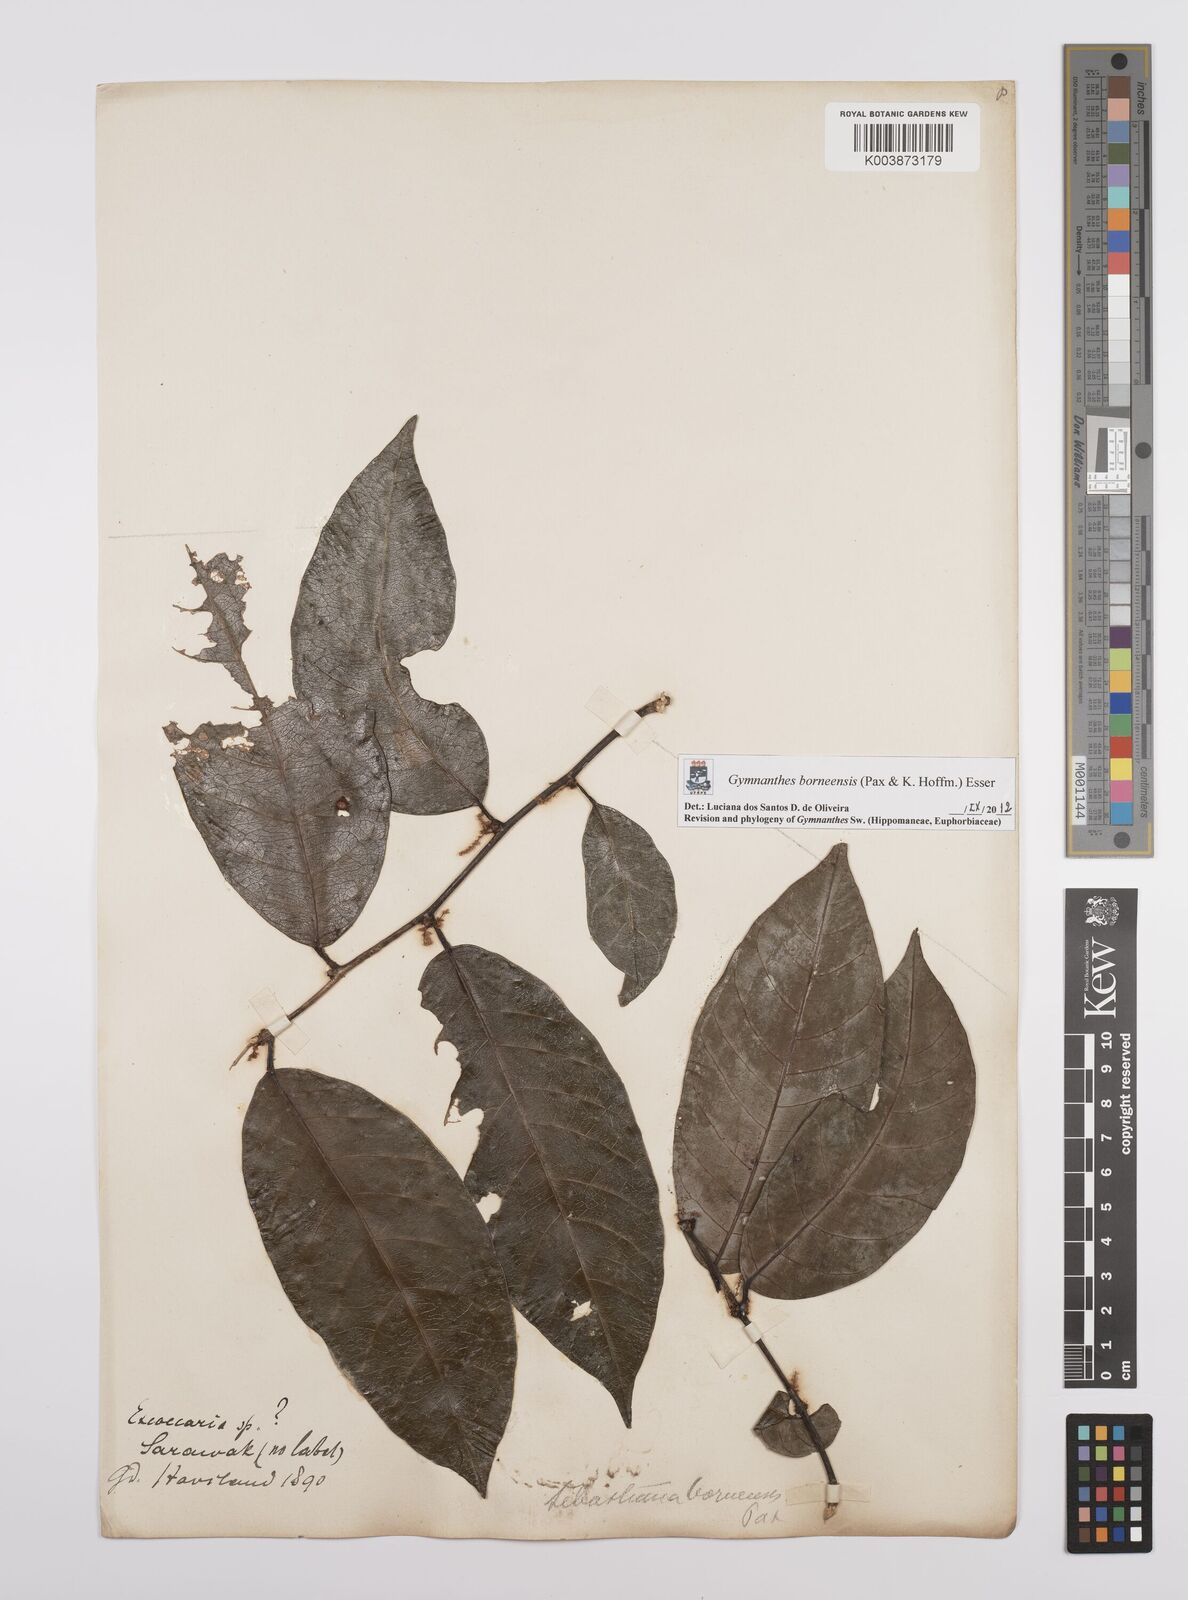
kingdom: Plantae
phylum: Tracheophyta
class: Magnoliopsida
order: Malpighiales
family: Euphorbiaceae
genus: Gymnanthes
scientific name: Gymnanthes borneensis
